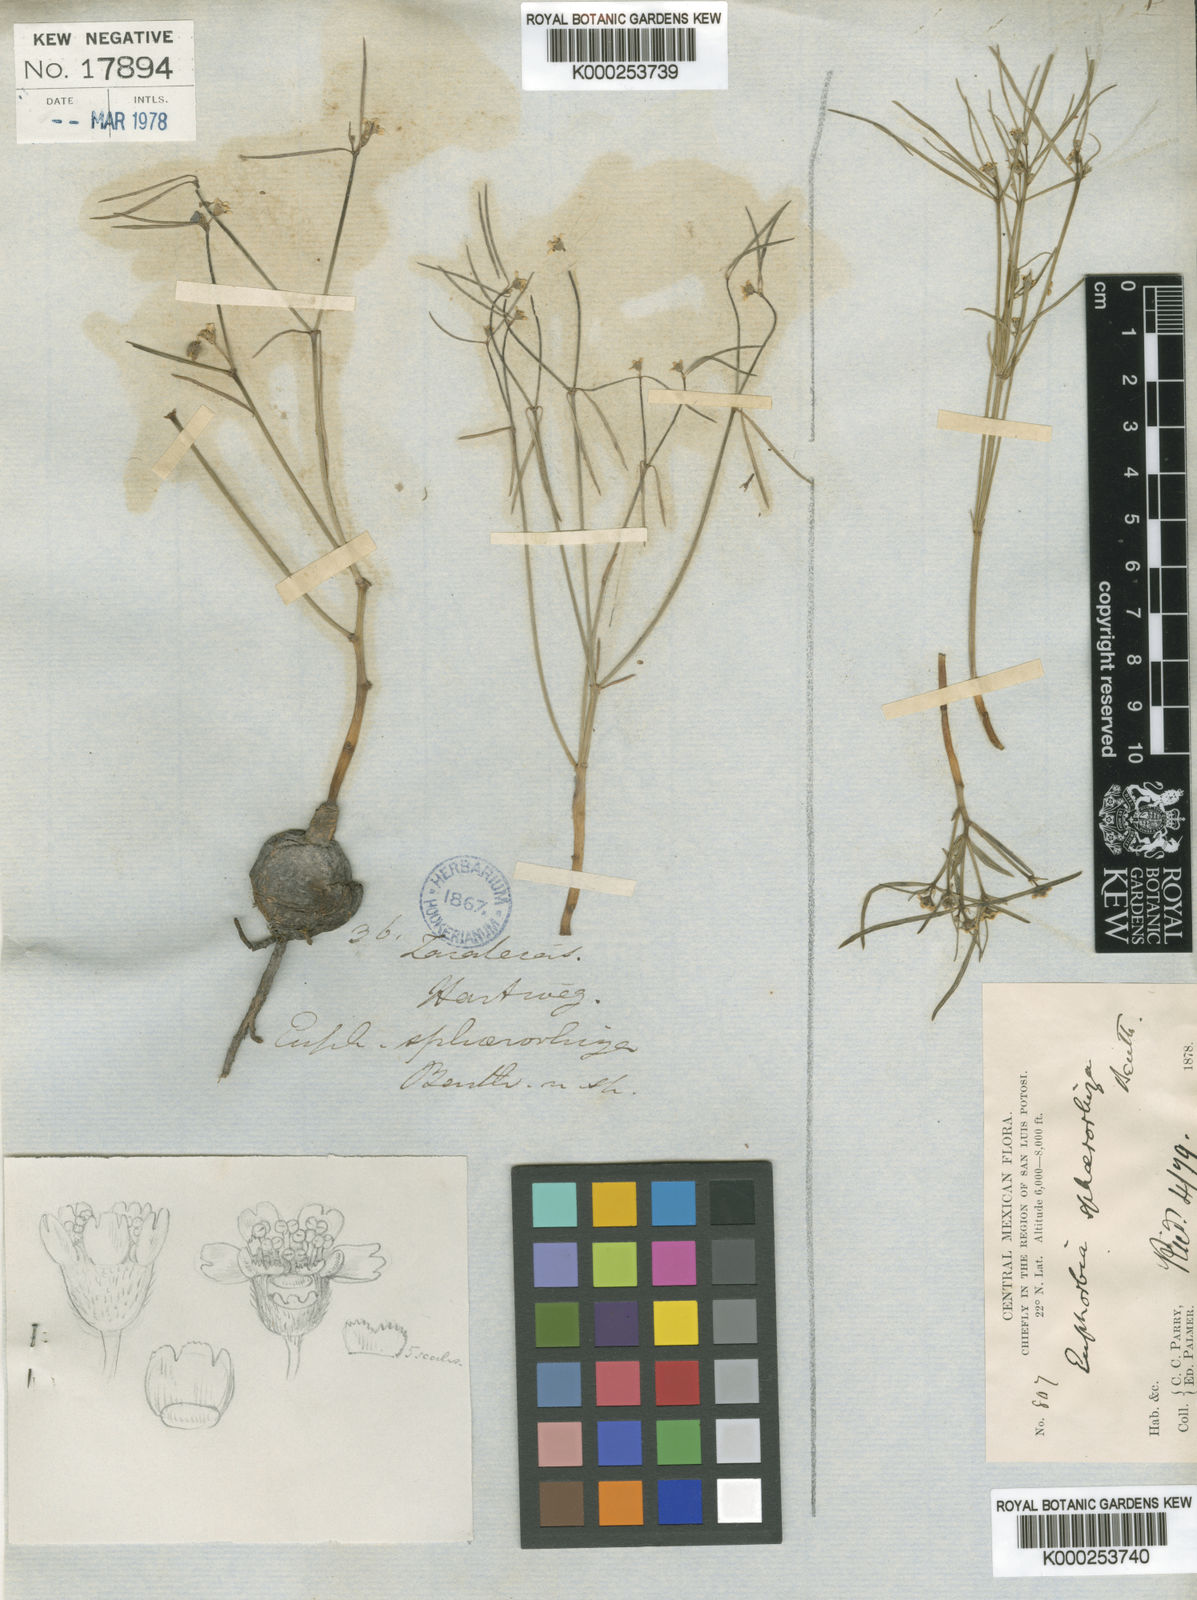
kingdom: Plantae
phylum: Tracheophyta
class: Magnoliopsida
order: Malpighiales
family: Euphorbiaceae
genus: Euphorbia
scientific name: Euphorbia sphaerorhiza
